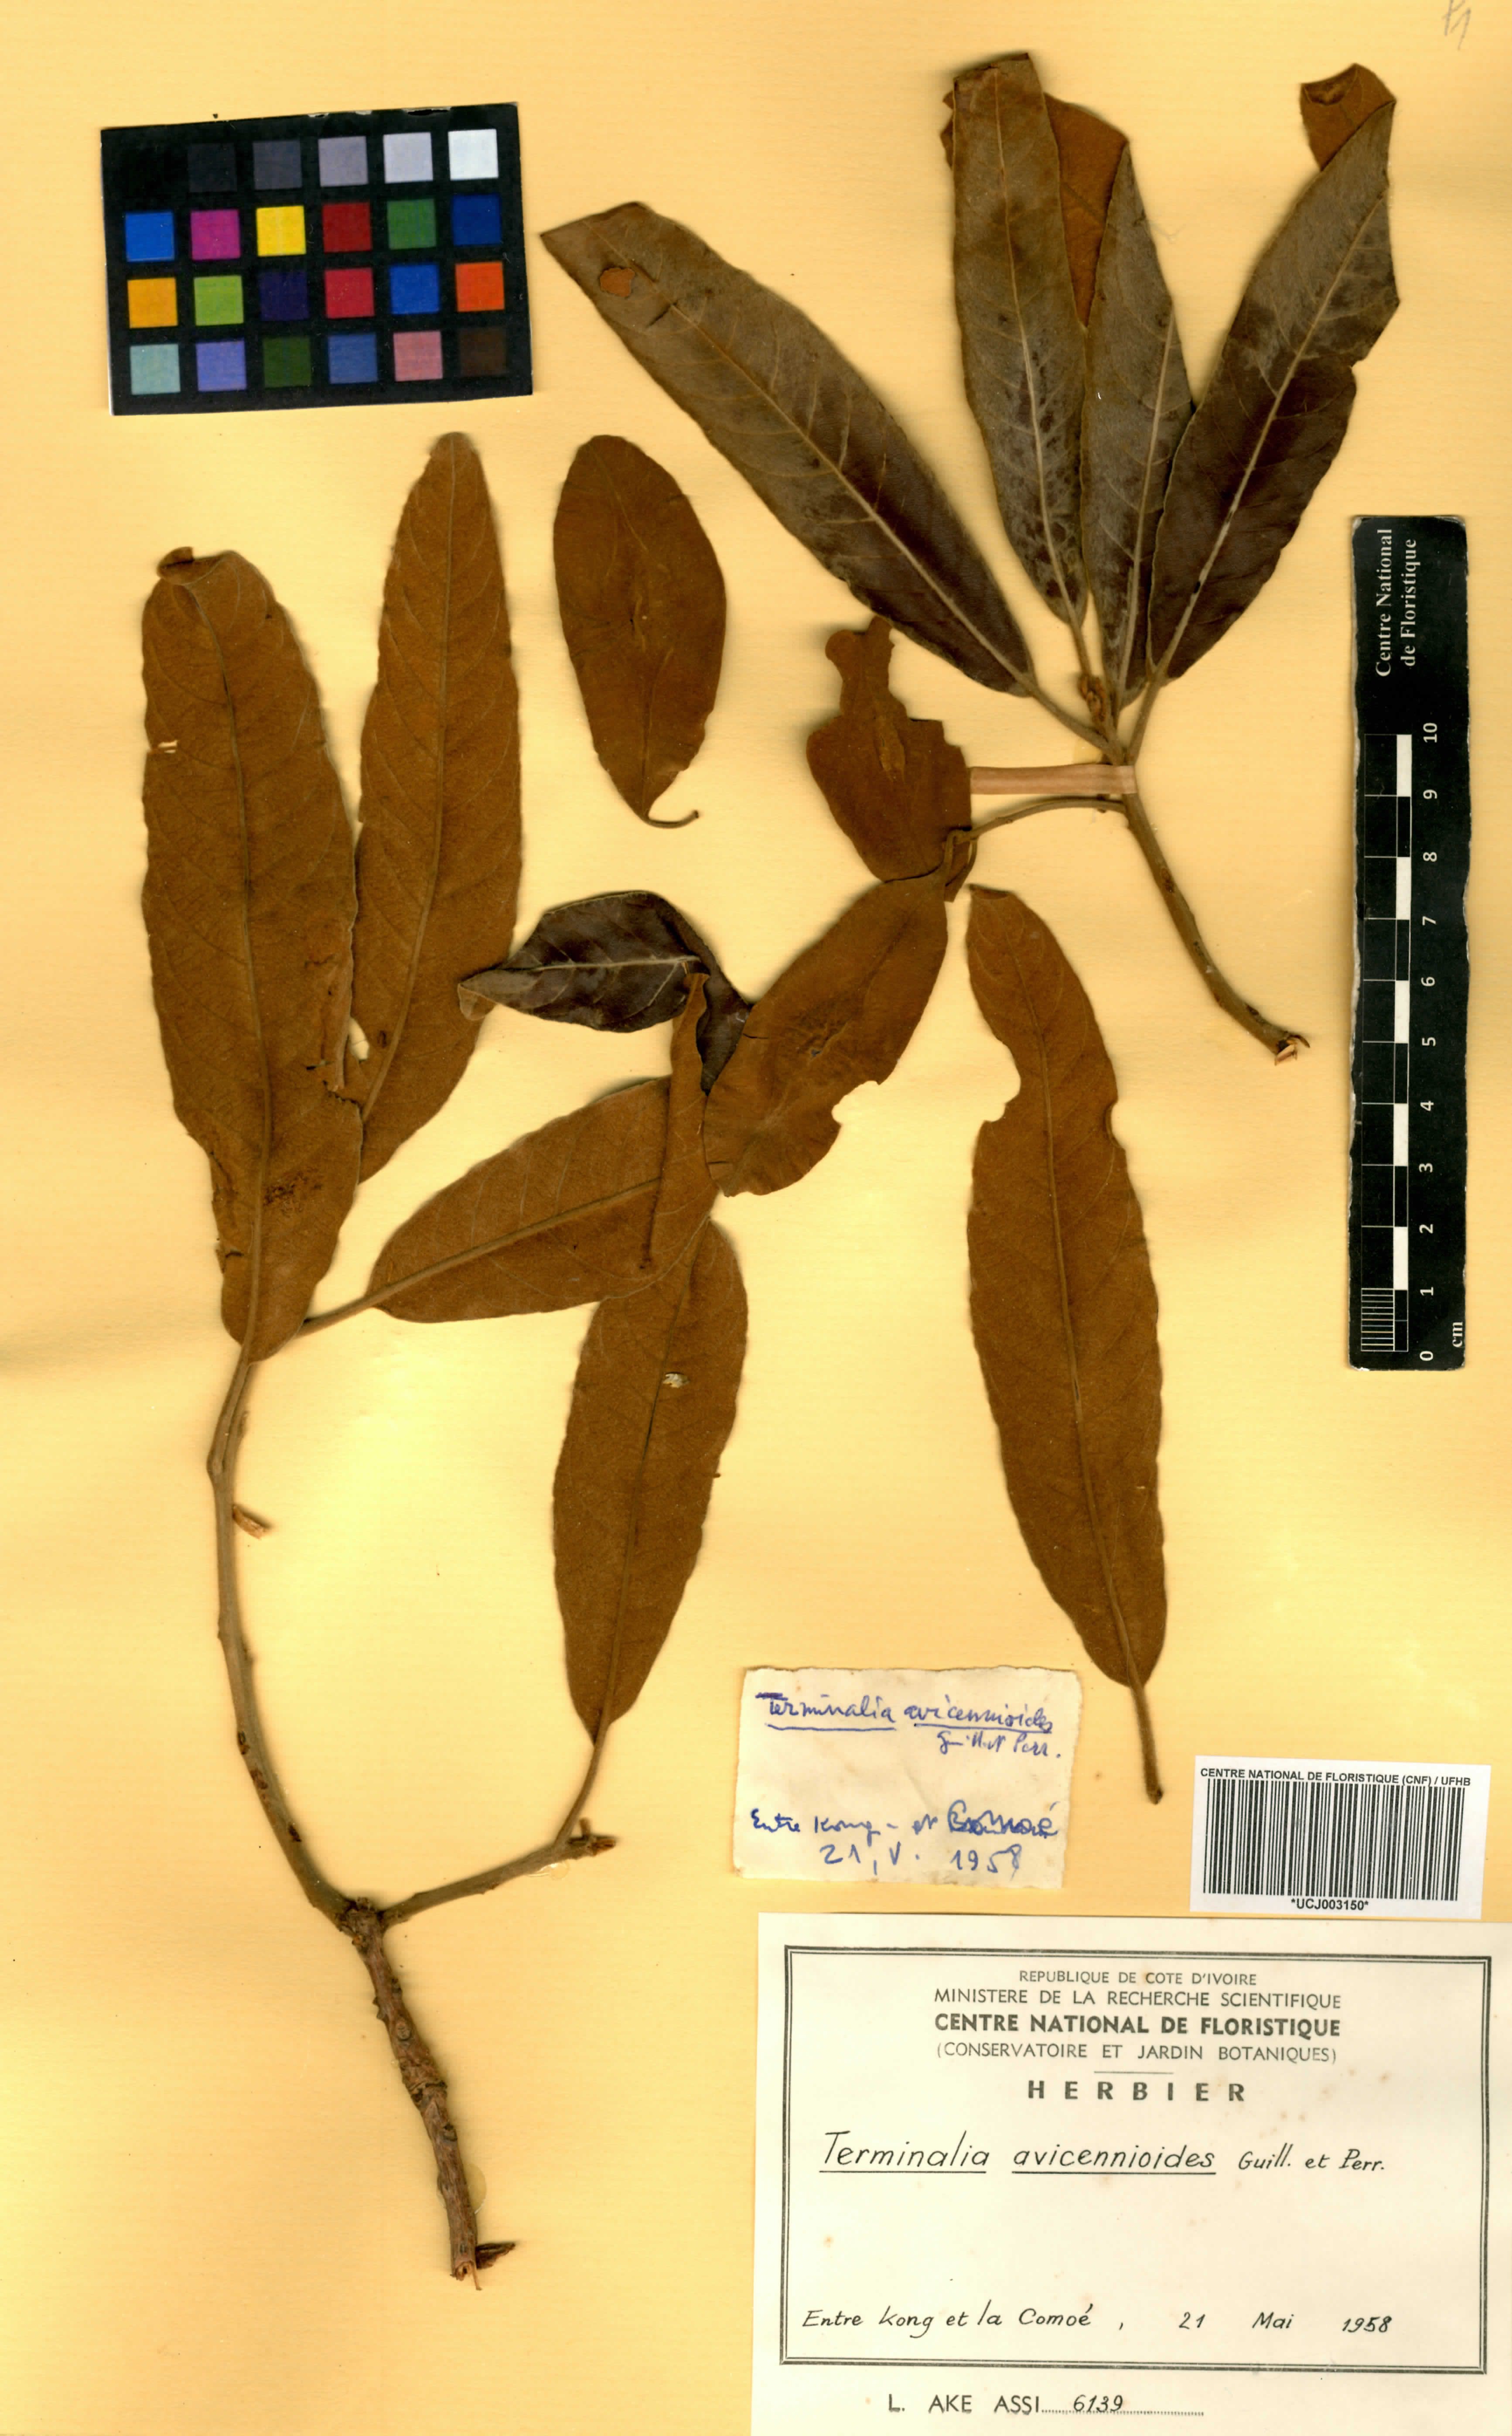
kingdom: Plantae
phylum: Tracheophyta
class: Magnoliopsida
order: Myrtales
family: Combretaceae
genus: Terminalia
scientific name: Terminalia avicennioides
